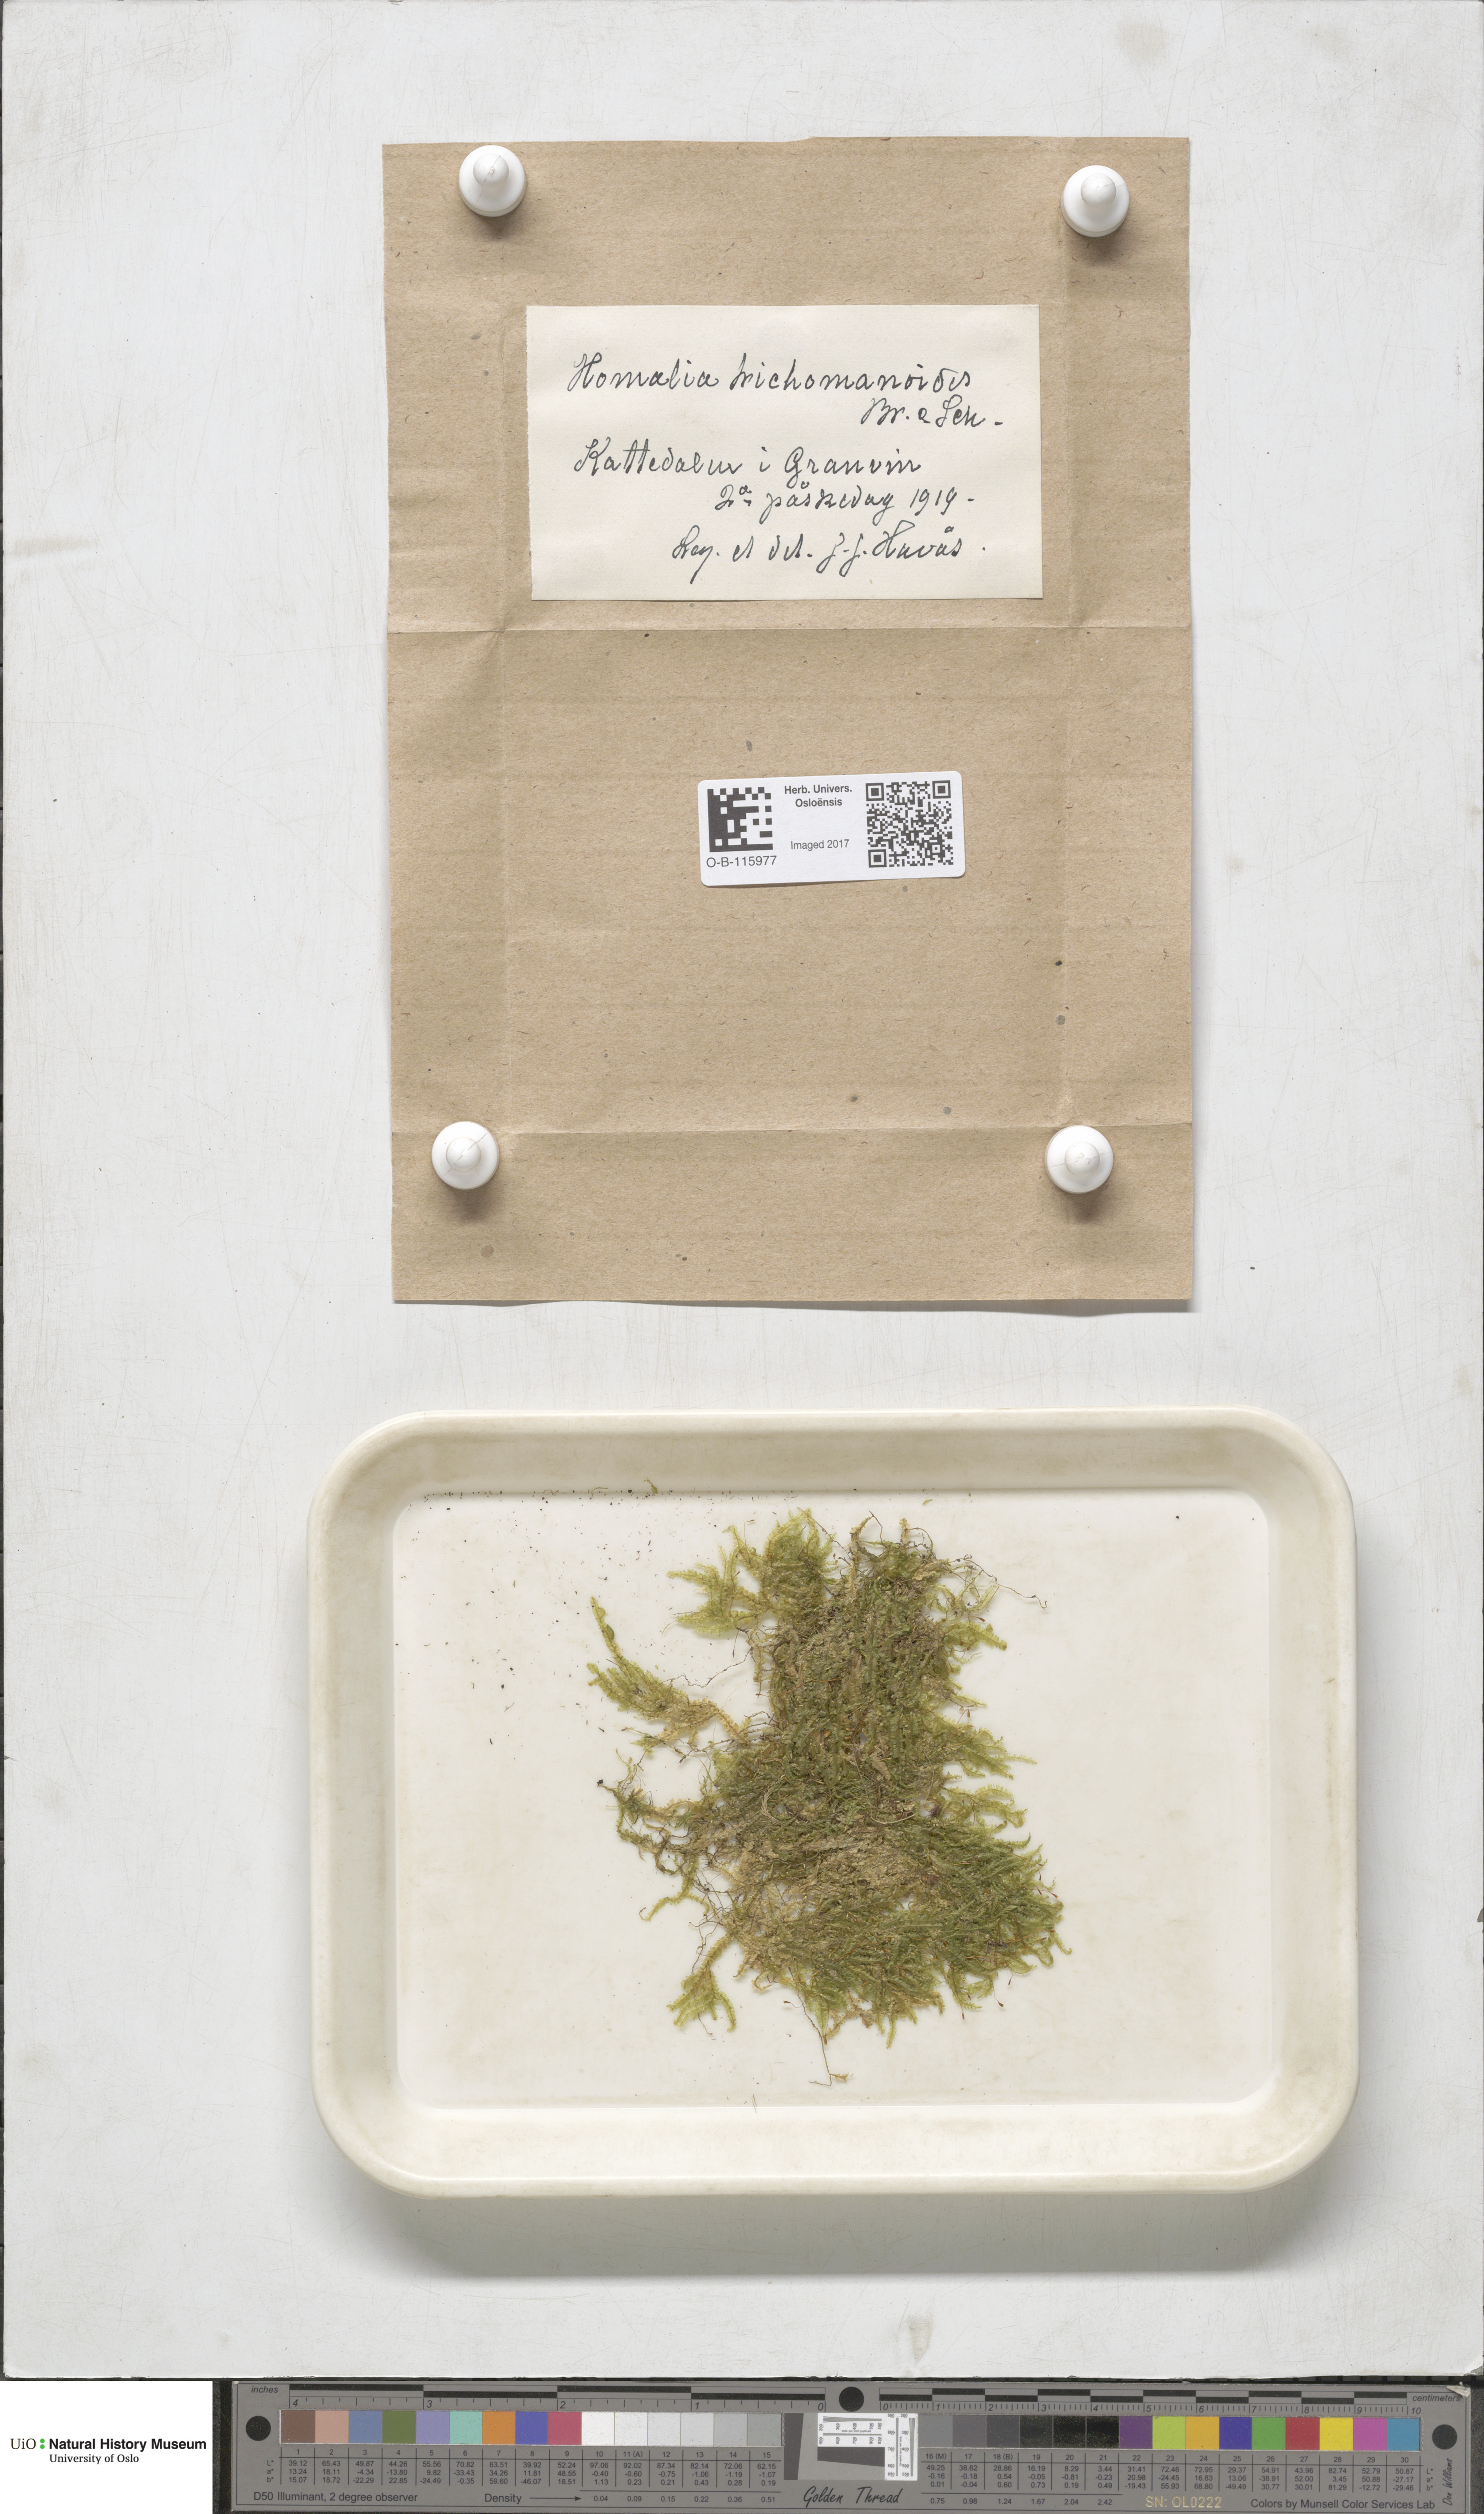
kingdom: Plantae
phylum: Bryophyta
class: Bryopsida
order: Hypnales
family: Neckeraceae
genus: Homalia
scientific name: Homalia trichomanoides
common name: Lime homalia moss
